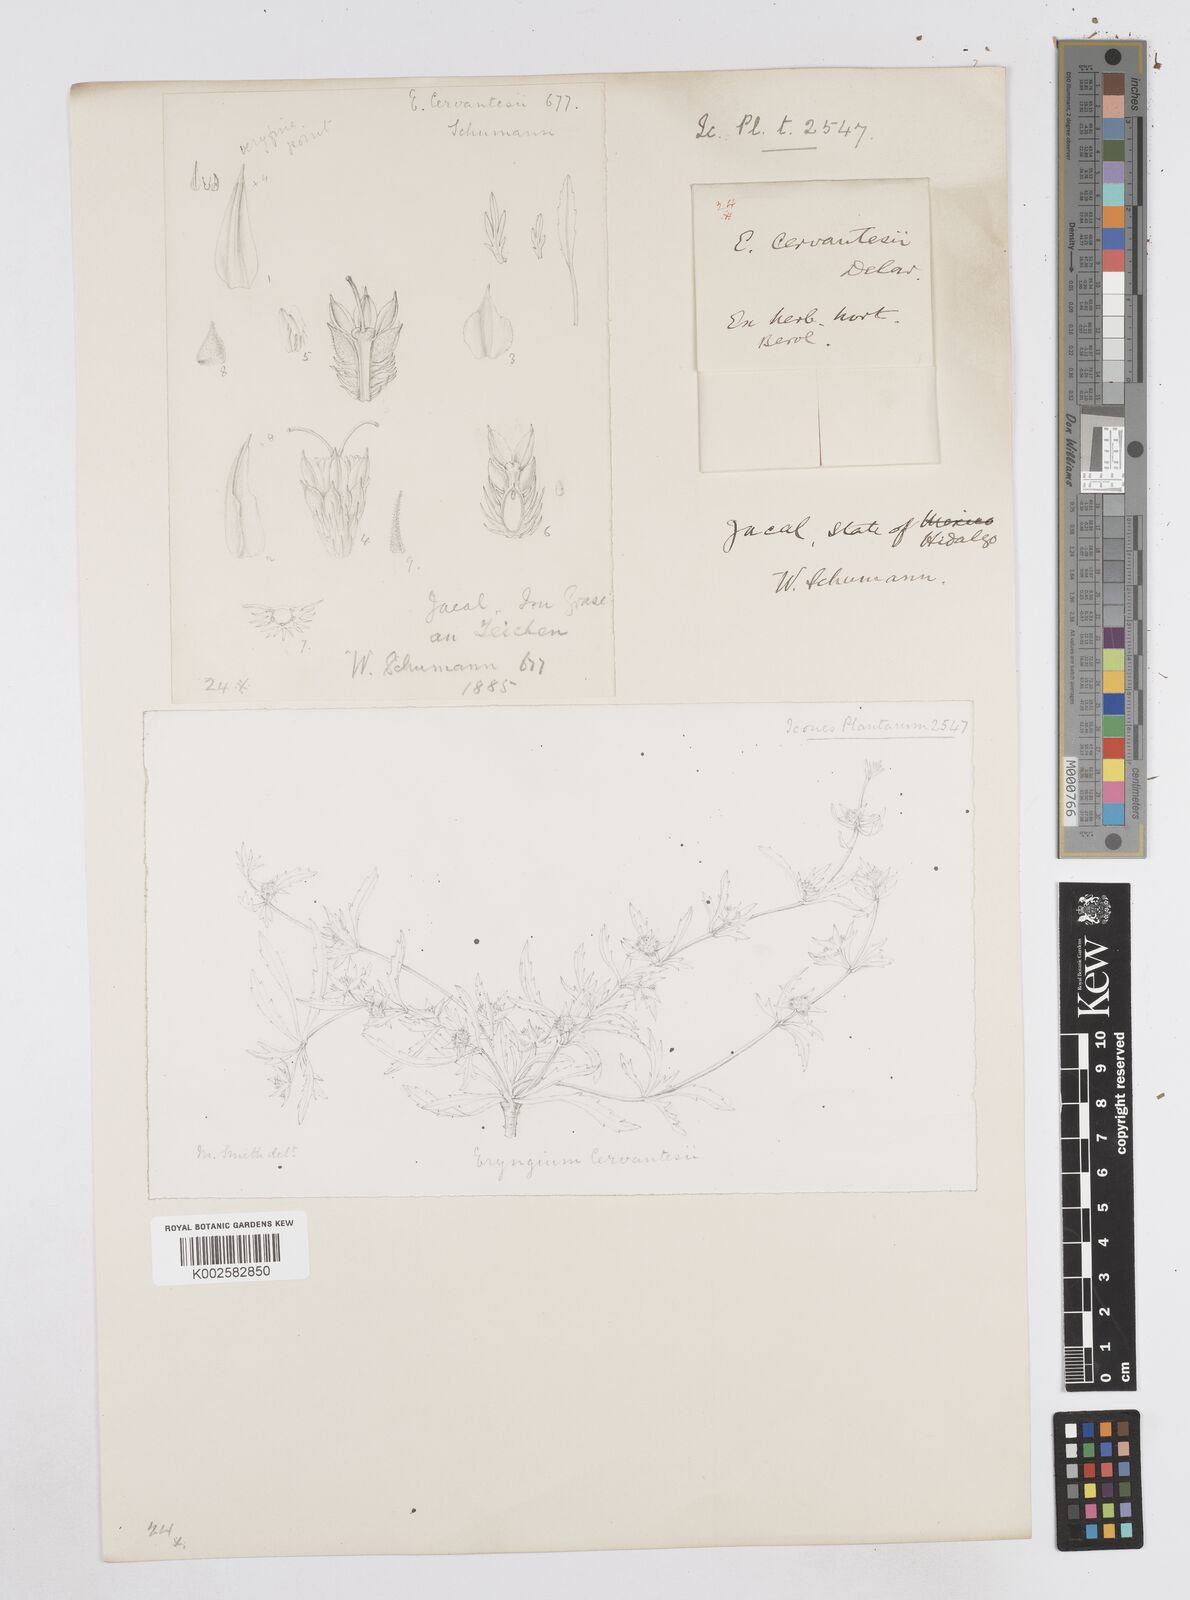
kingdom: Plantae
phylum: Tracheophyta
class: Magnoliopsida
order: Apiales
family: Apiaceae
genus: Eryngium
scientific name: Eryngium cervantesii
